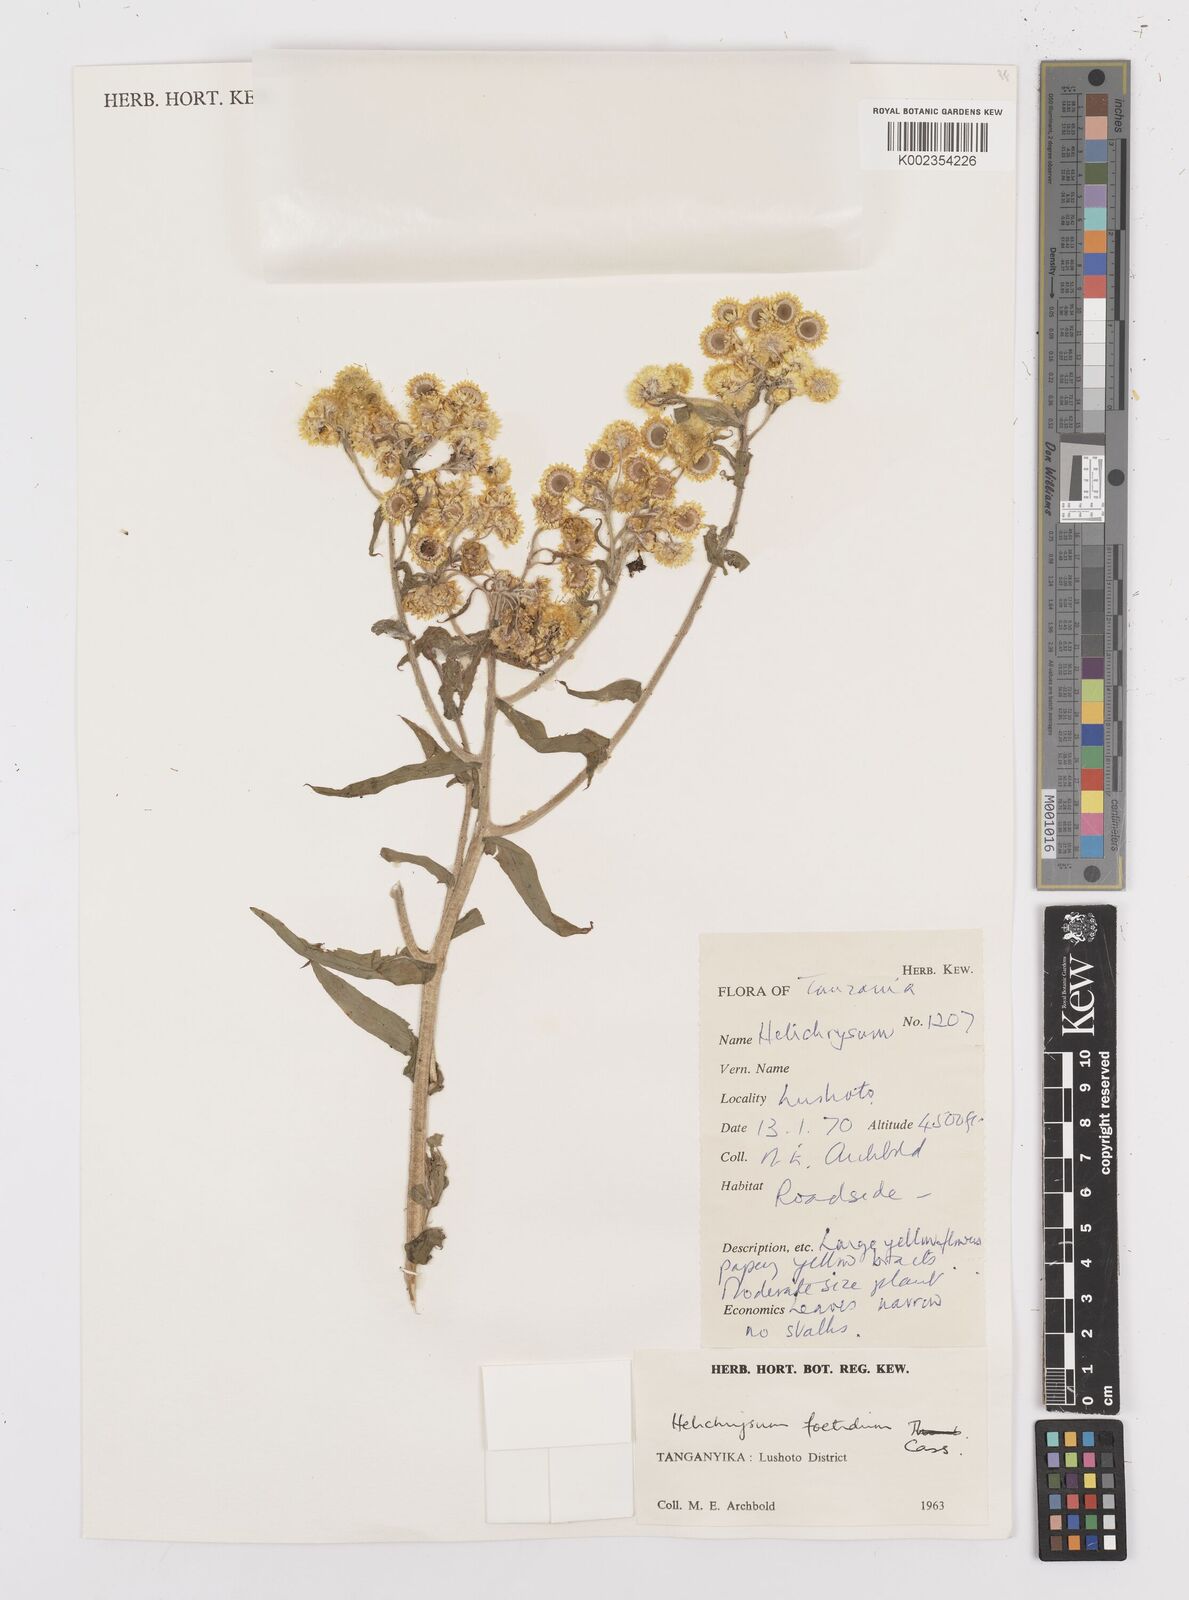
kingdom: Plantae
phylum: Tracheophyta
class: Magnoliopsida
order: Asterales
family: Asteraceae
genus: Helichrysum
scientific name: Helichrysum
